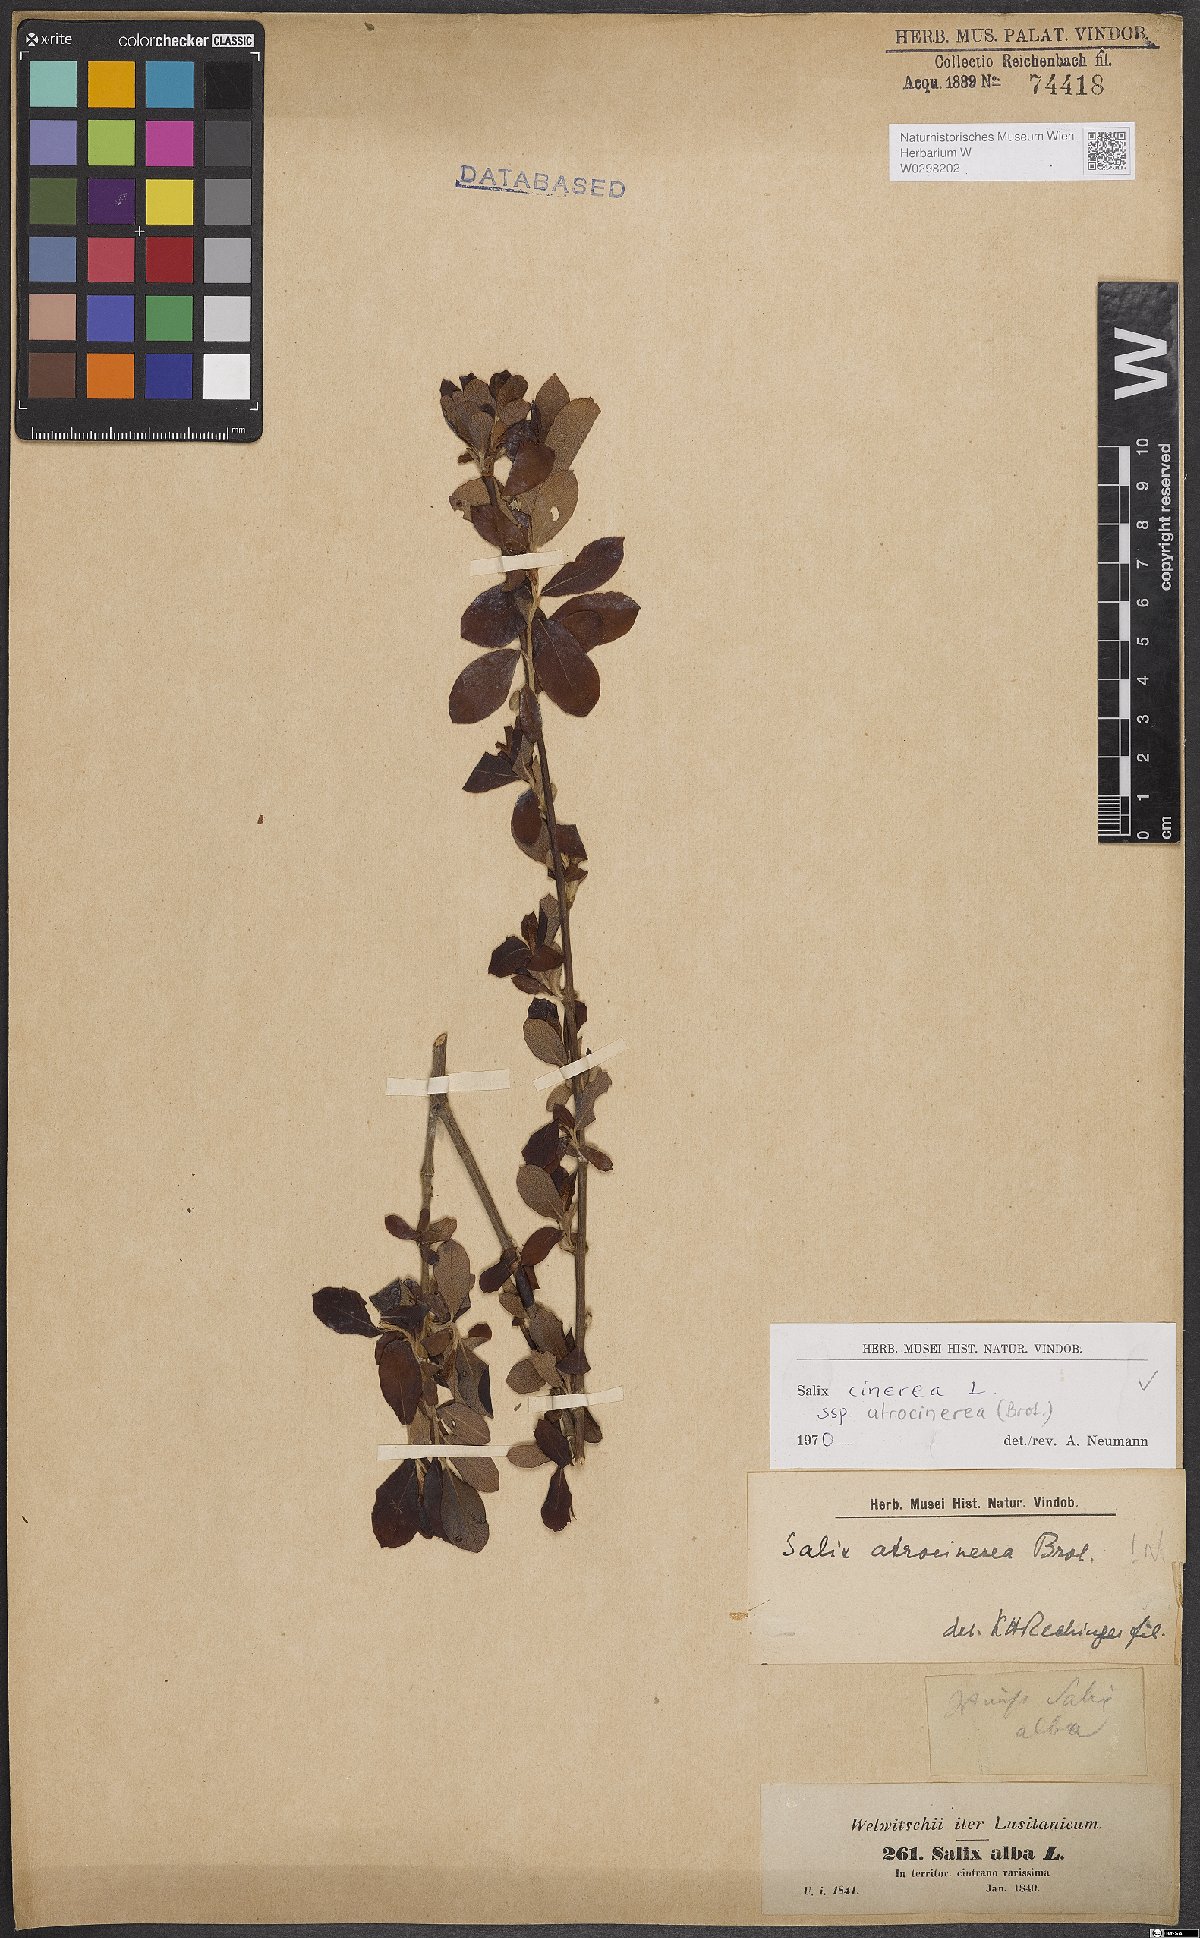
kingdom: Plantae
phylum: Tracheophyta
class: Magnoliopsida
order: Malpighiales
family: Salicaceae
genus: Salix
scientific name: Salix atrocinerea
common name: Rusty willow
